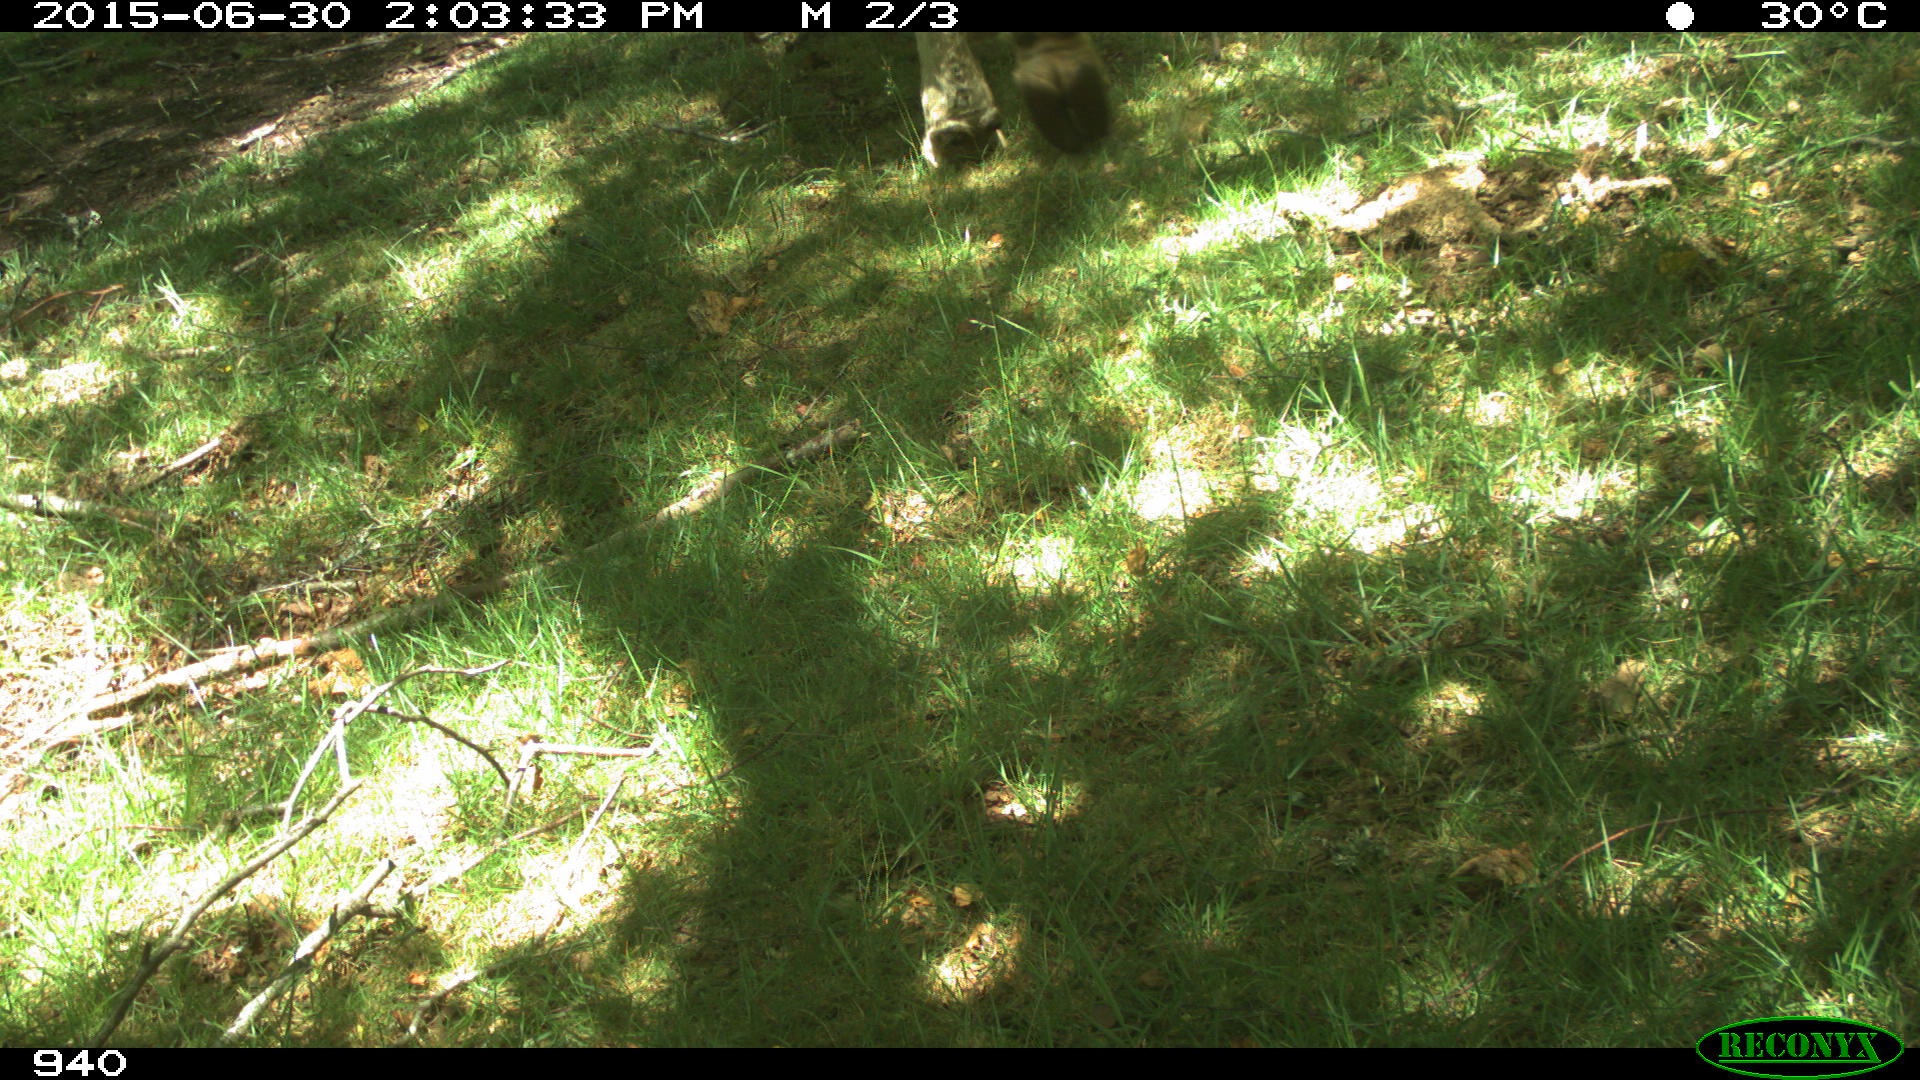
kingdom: Animalia
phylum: Chordata
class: Mammalia
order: Artiodactyla
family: Bovidae
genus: Bos
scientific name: Bos taurus
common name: Domesticated cattle
